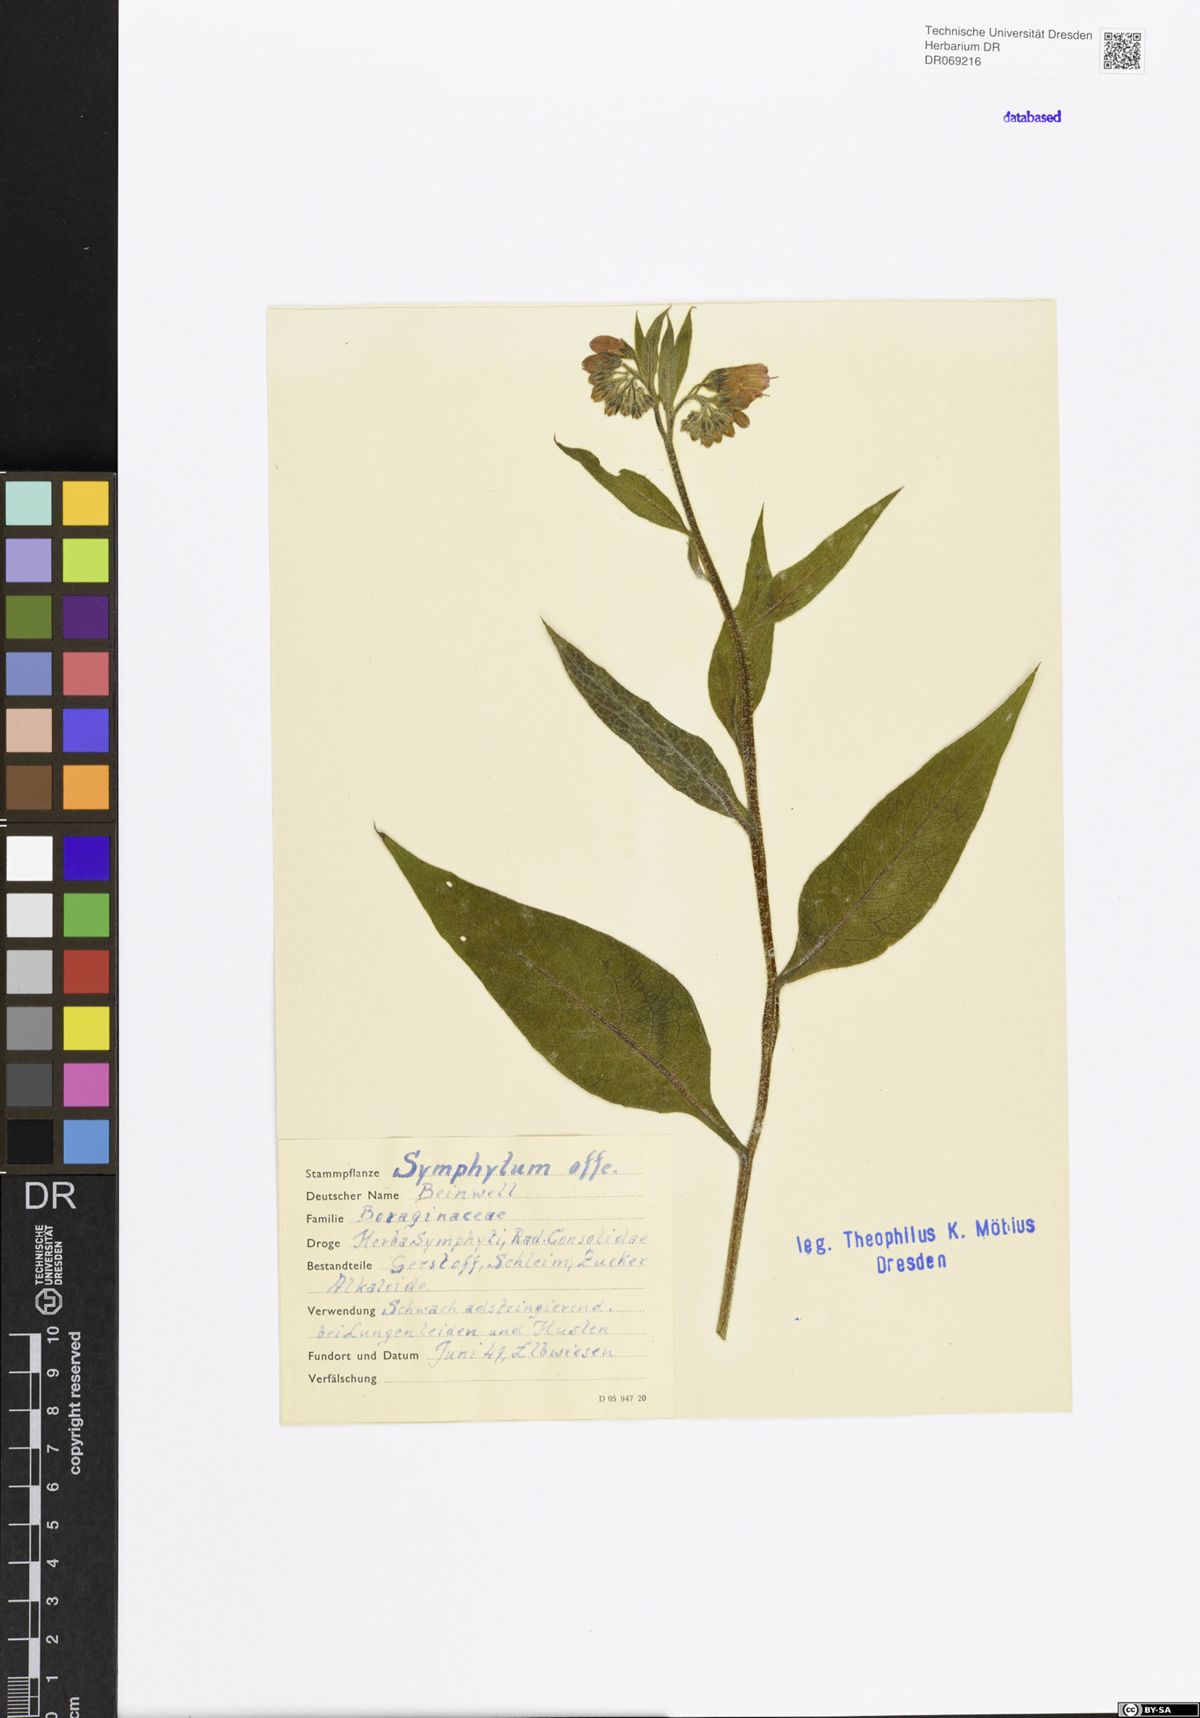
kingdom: Plantae
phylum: Tracheophyta
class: Magnoliopsida
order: Boraginales
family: Boraginaceae
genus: Symphytum
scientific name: Symphytum officinale
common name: Common comfrey
